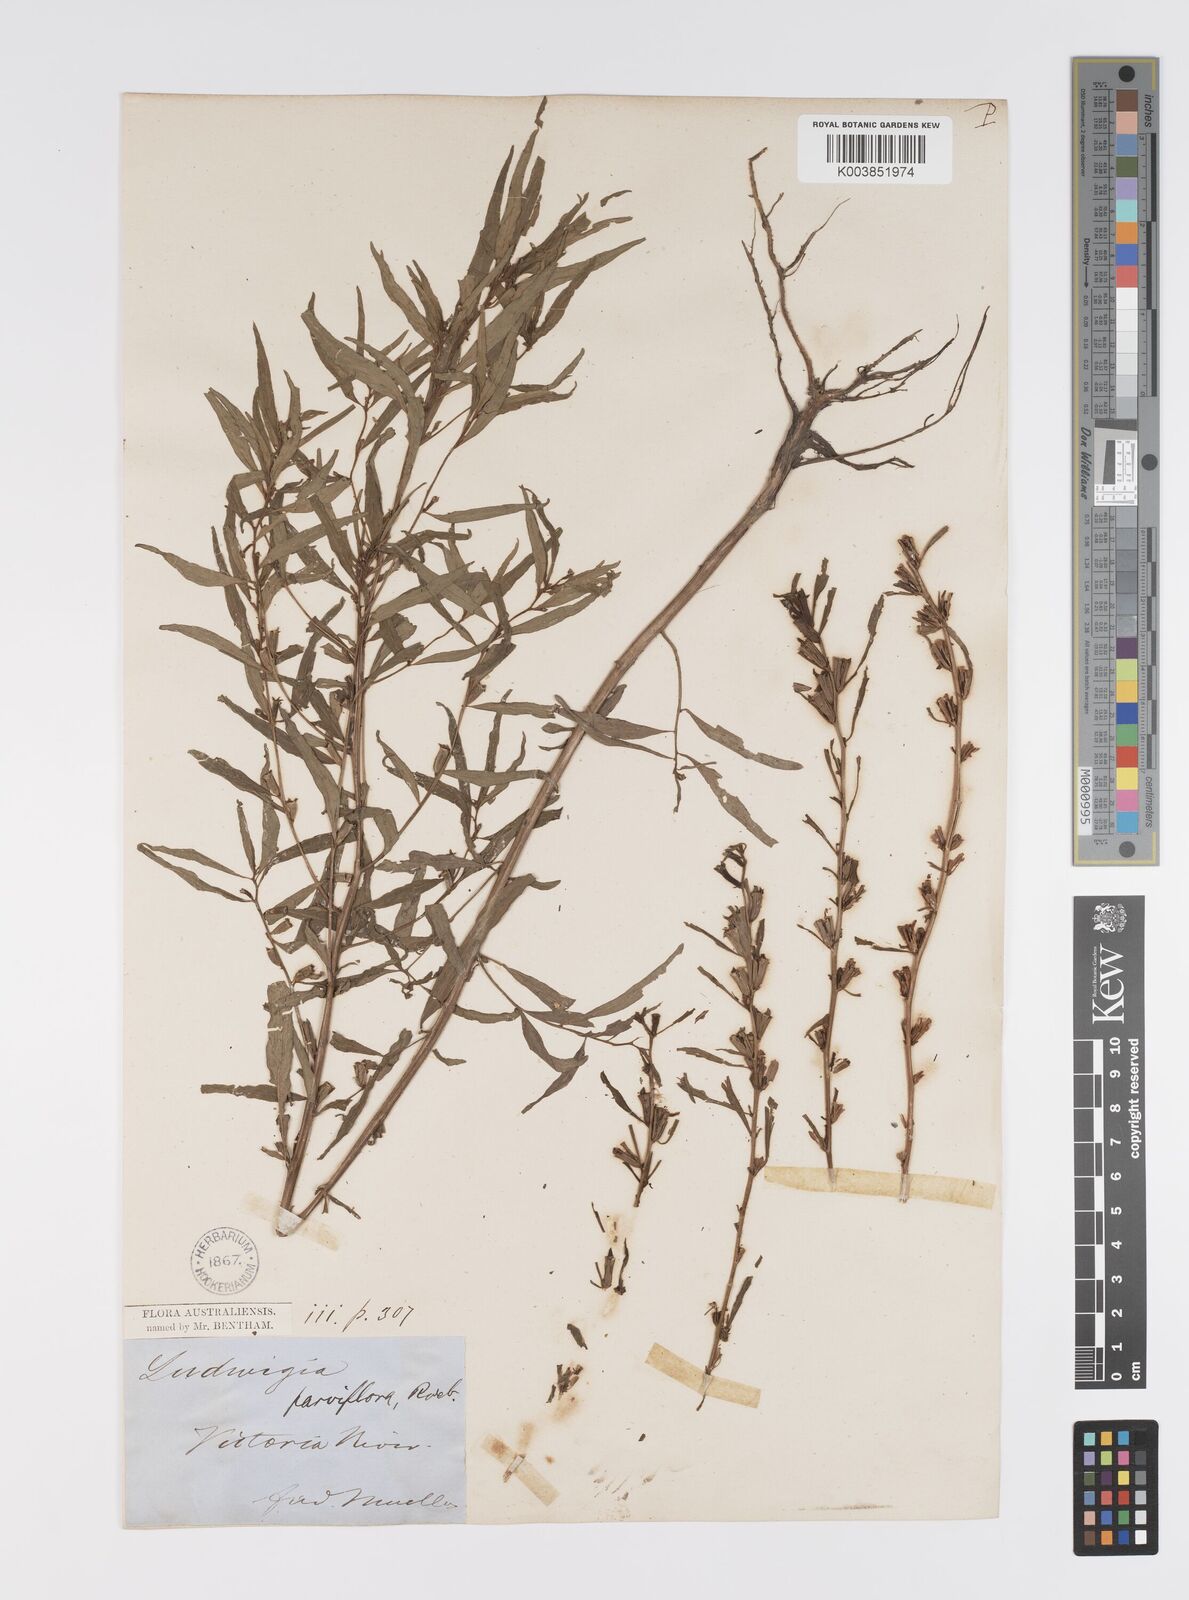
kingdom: Plantae
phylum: Tracheophyta
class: Magnoliopsida
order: Myrtales
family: Onagraceae
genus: Ludwigia
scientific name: Ludwigia perennis
